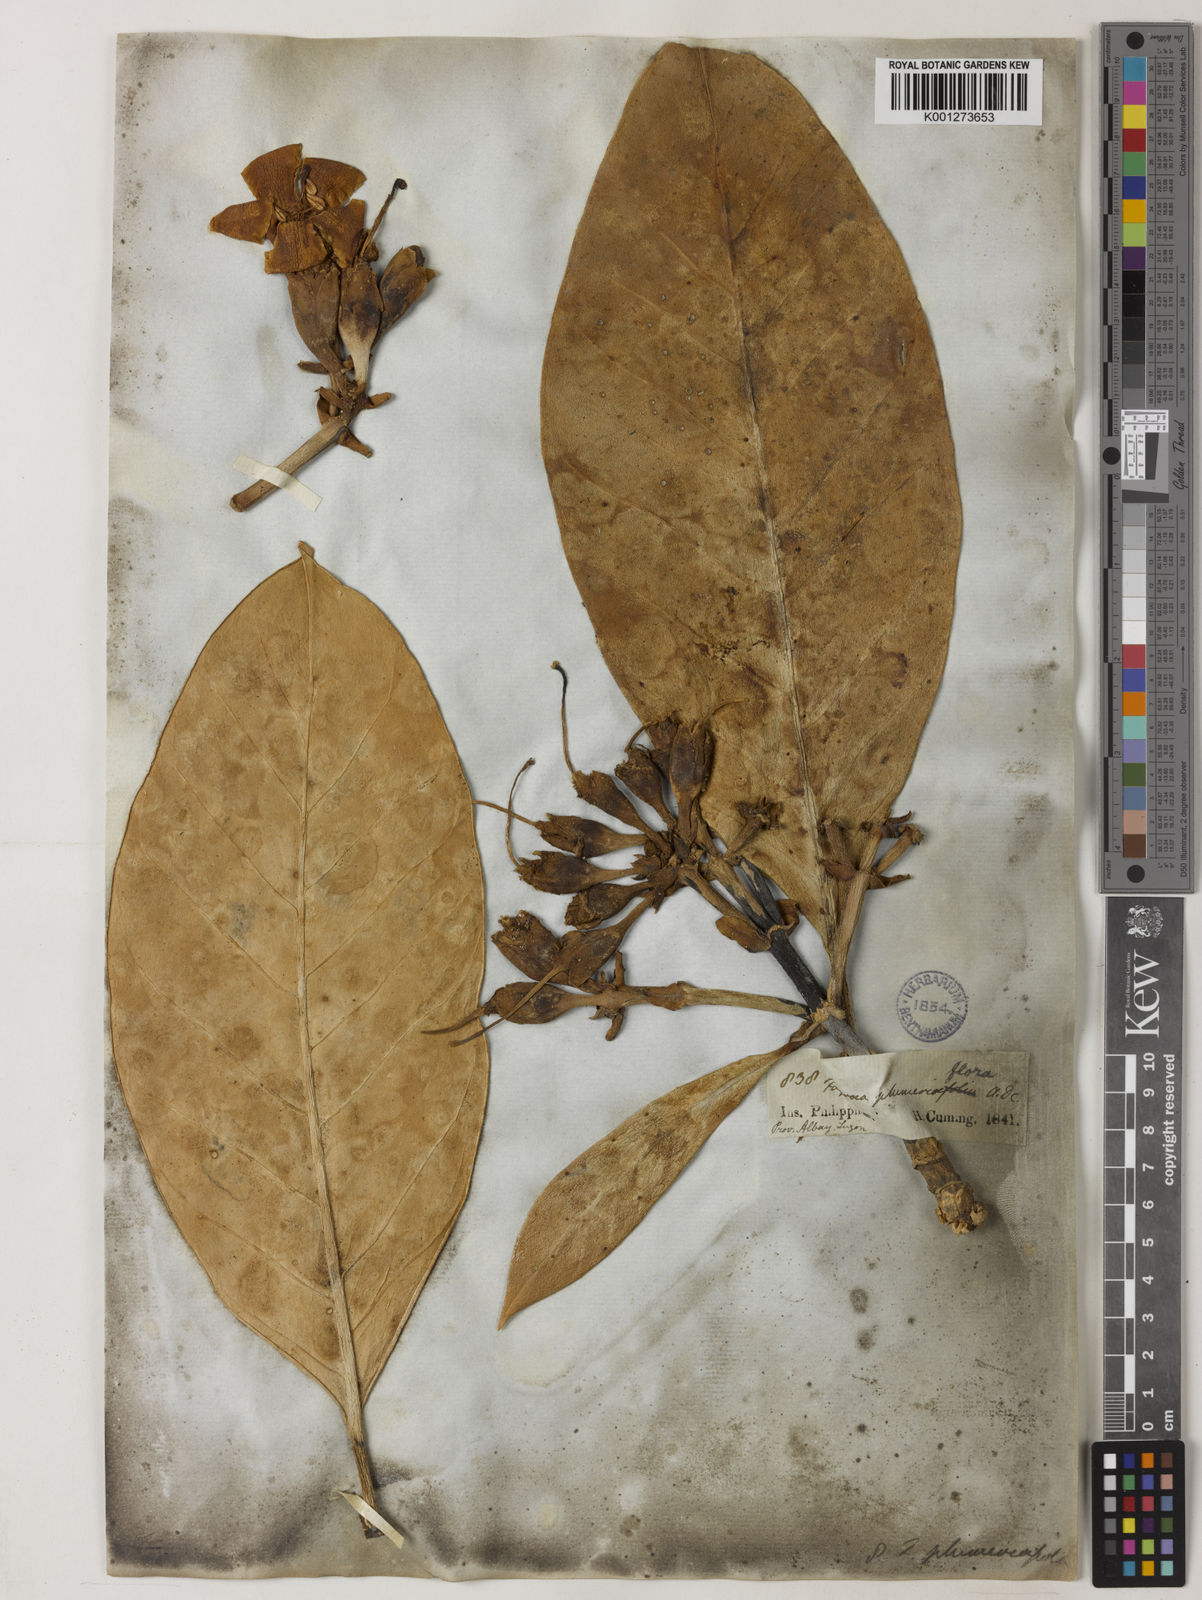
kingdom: Plantae
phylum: Tracheophyta
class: Magnoliopsida
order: Gentianales
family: Gentianaceae
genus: Fagraea
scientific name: Fagraea plumeriiflora
